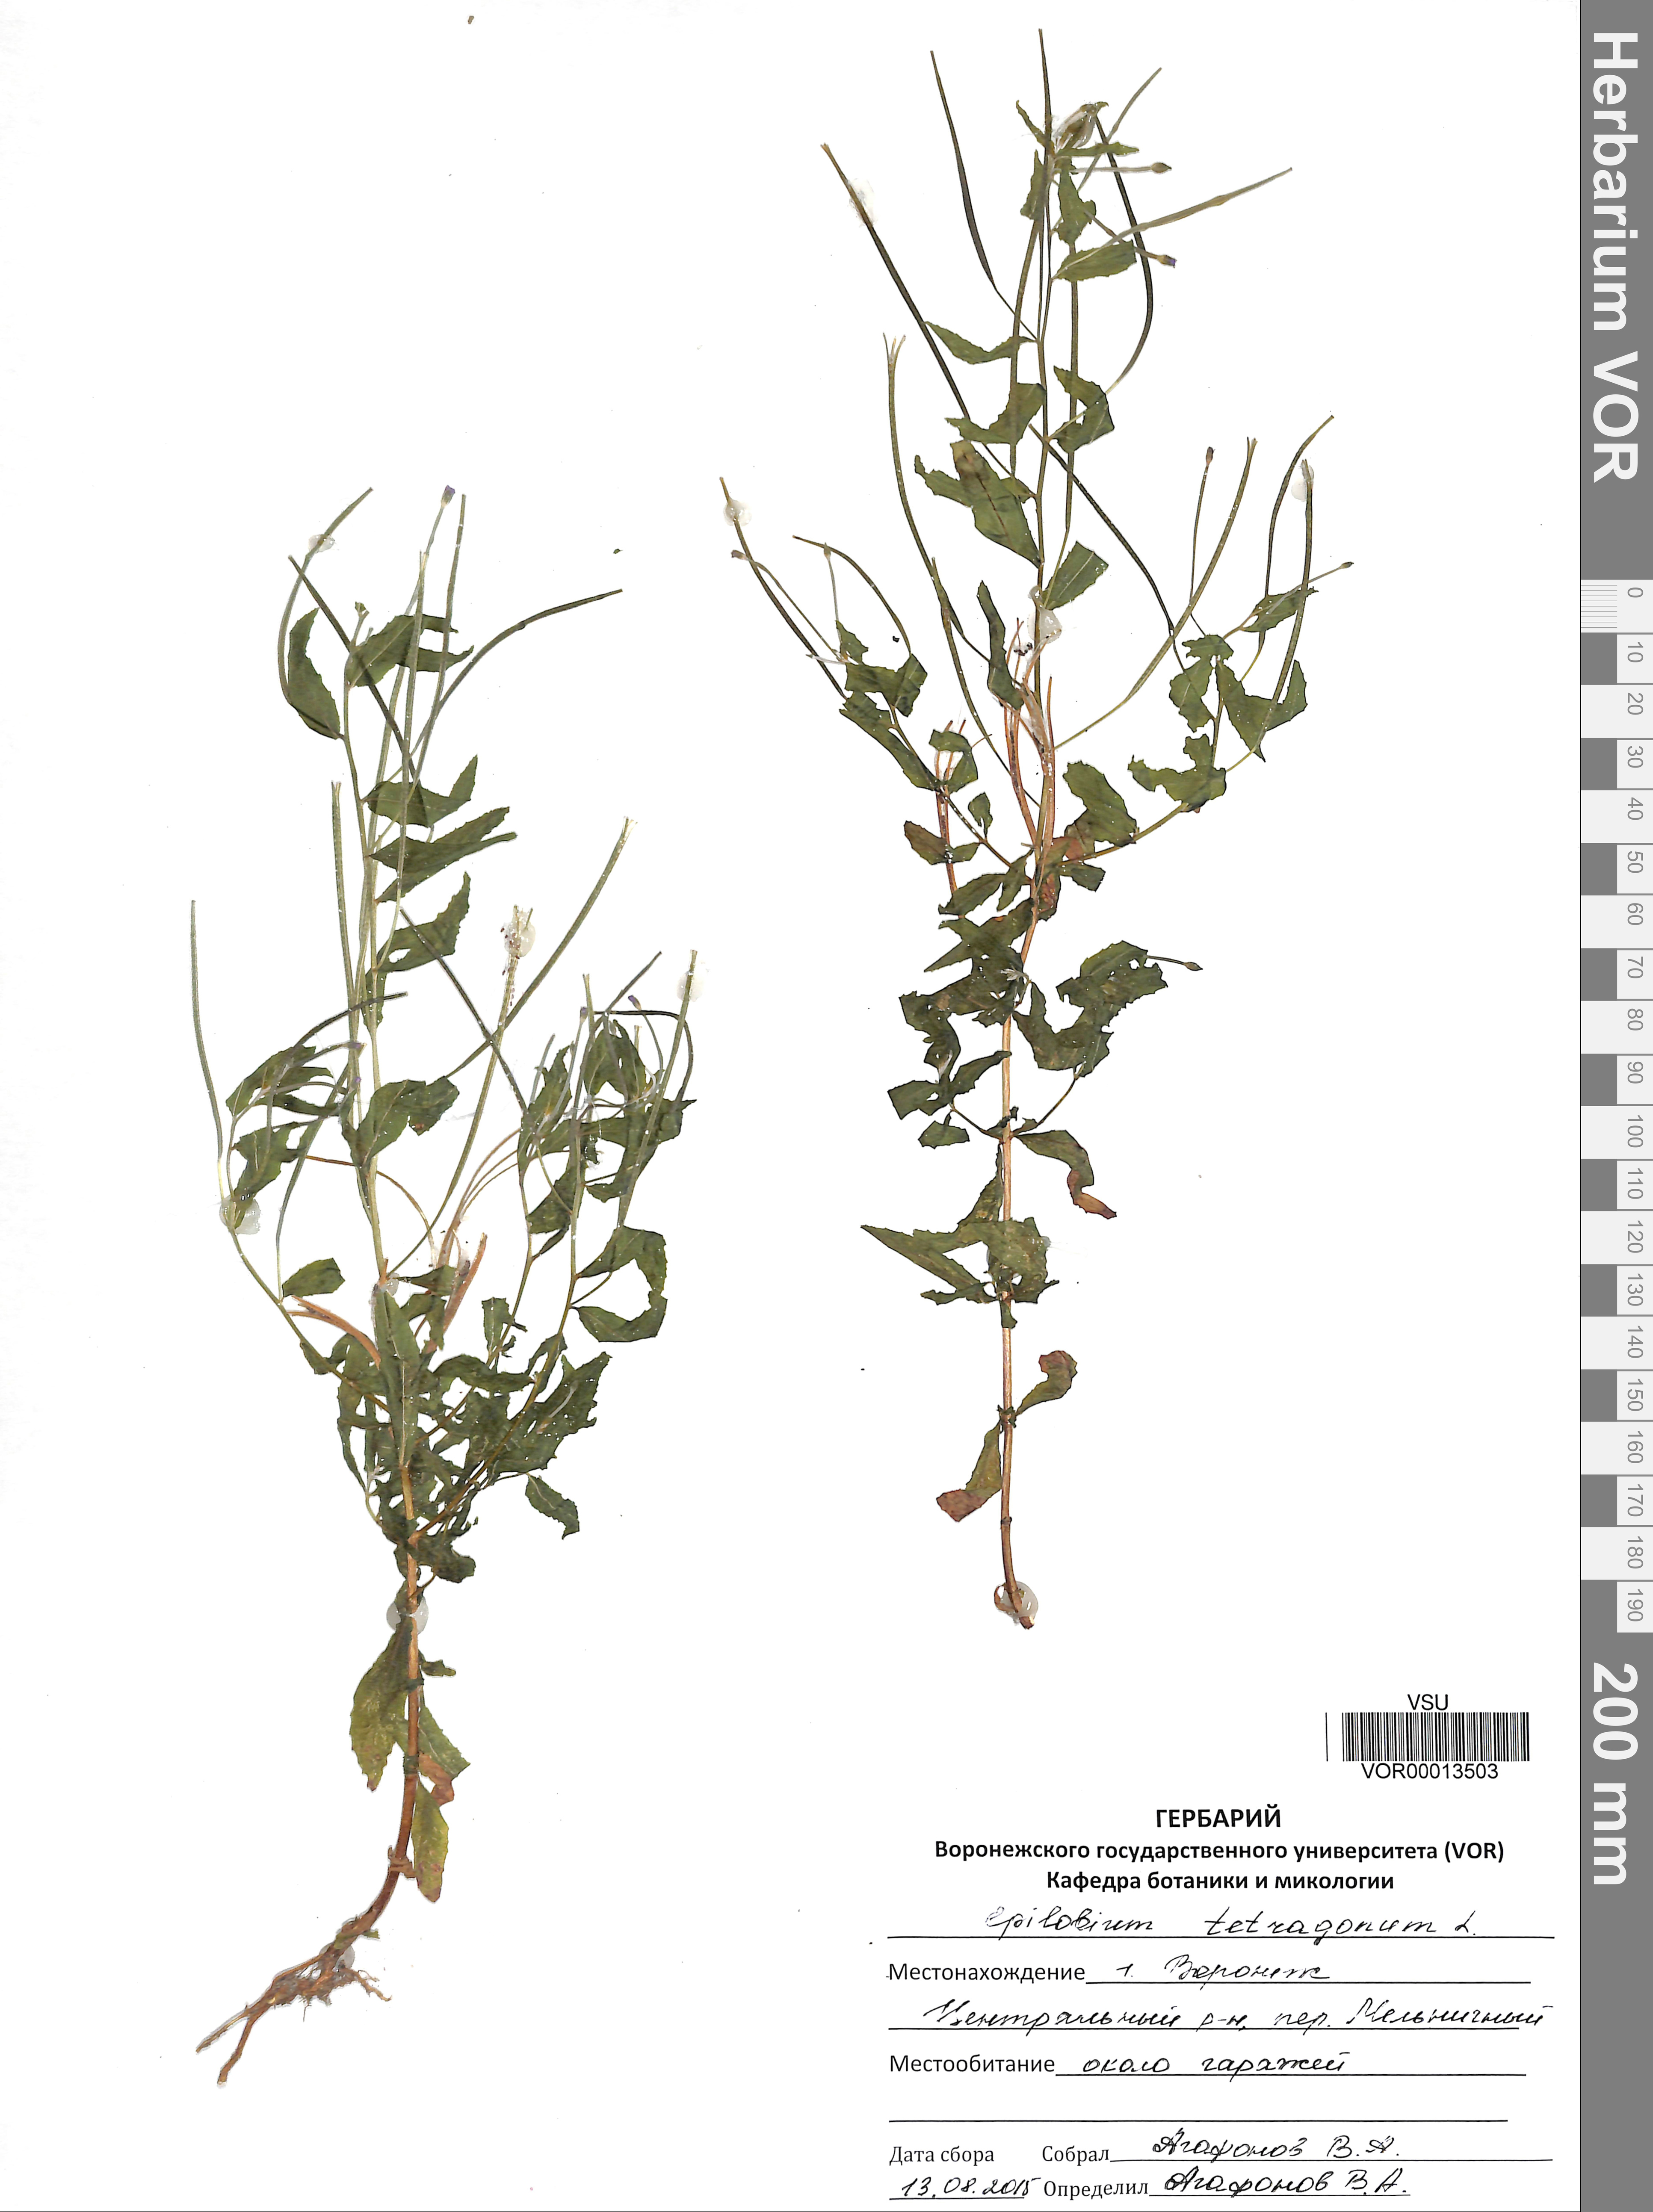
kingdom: Plantae
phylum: Tracheophyta
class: Magnoliopsida
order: Myrtales
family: Onagraceae
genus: Epilobium
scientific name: Epilobium tetragonum
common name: Square-stemmed willowherb
